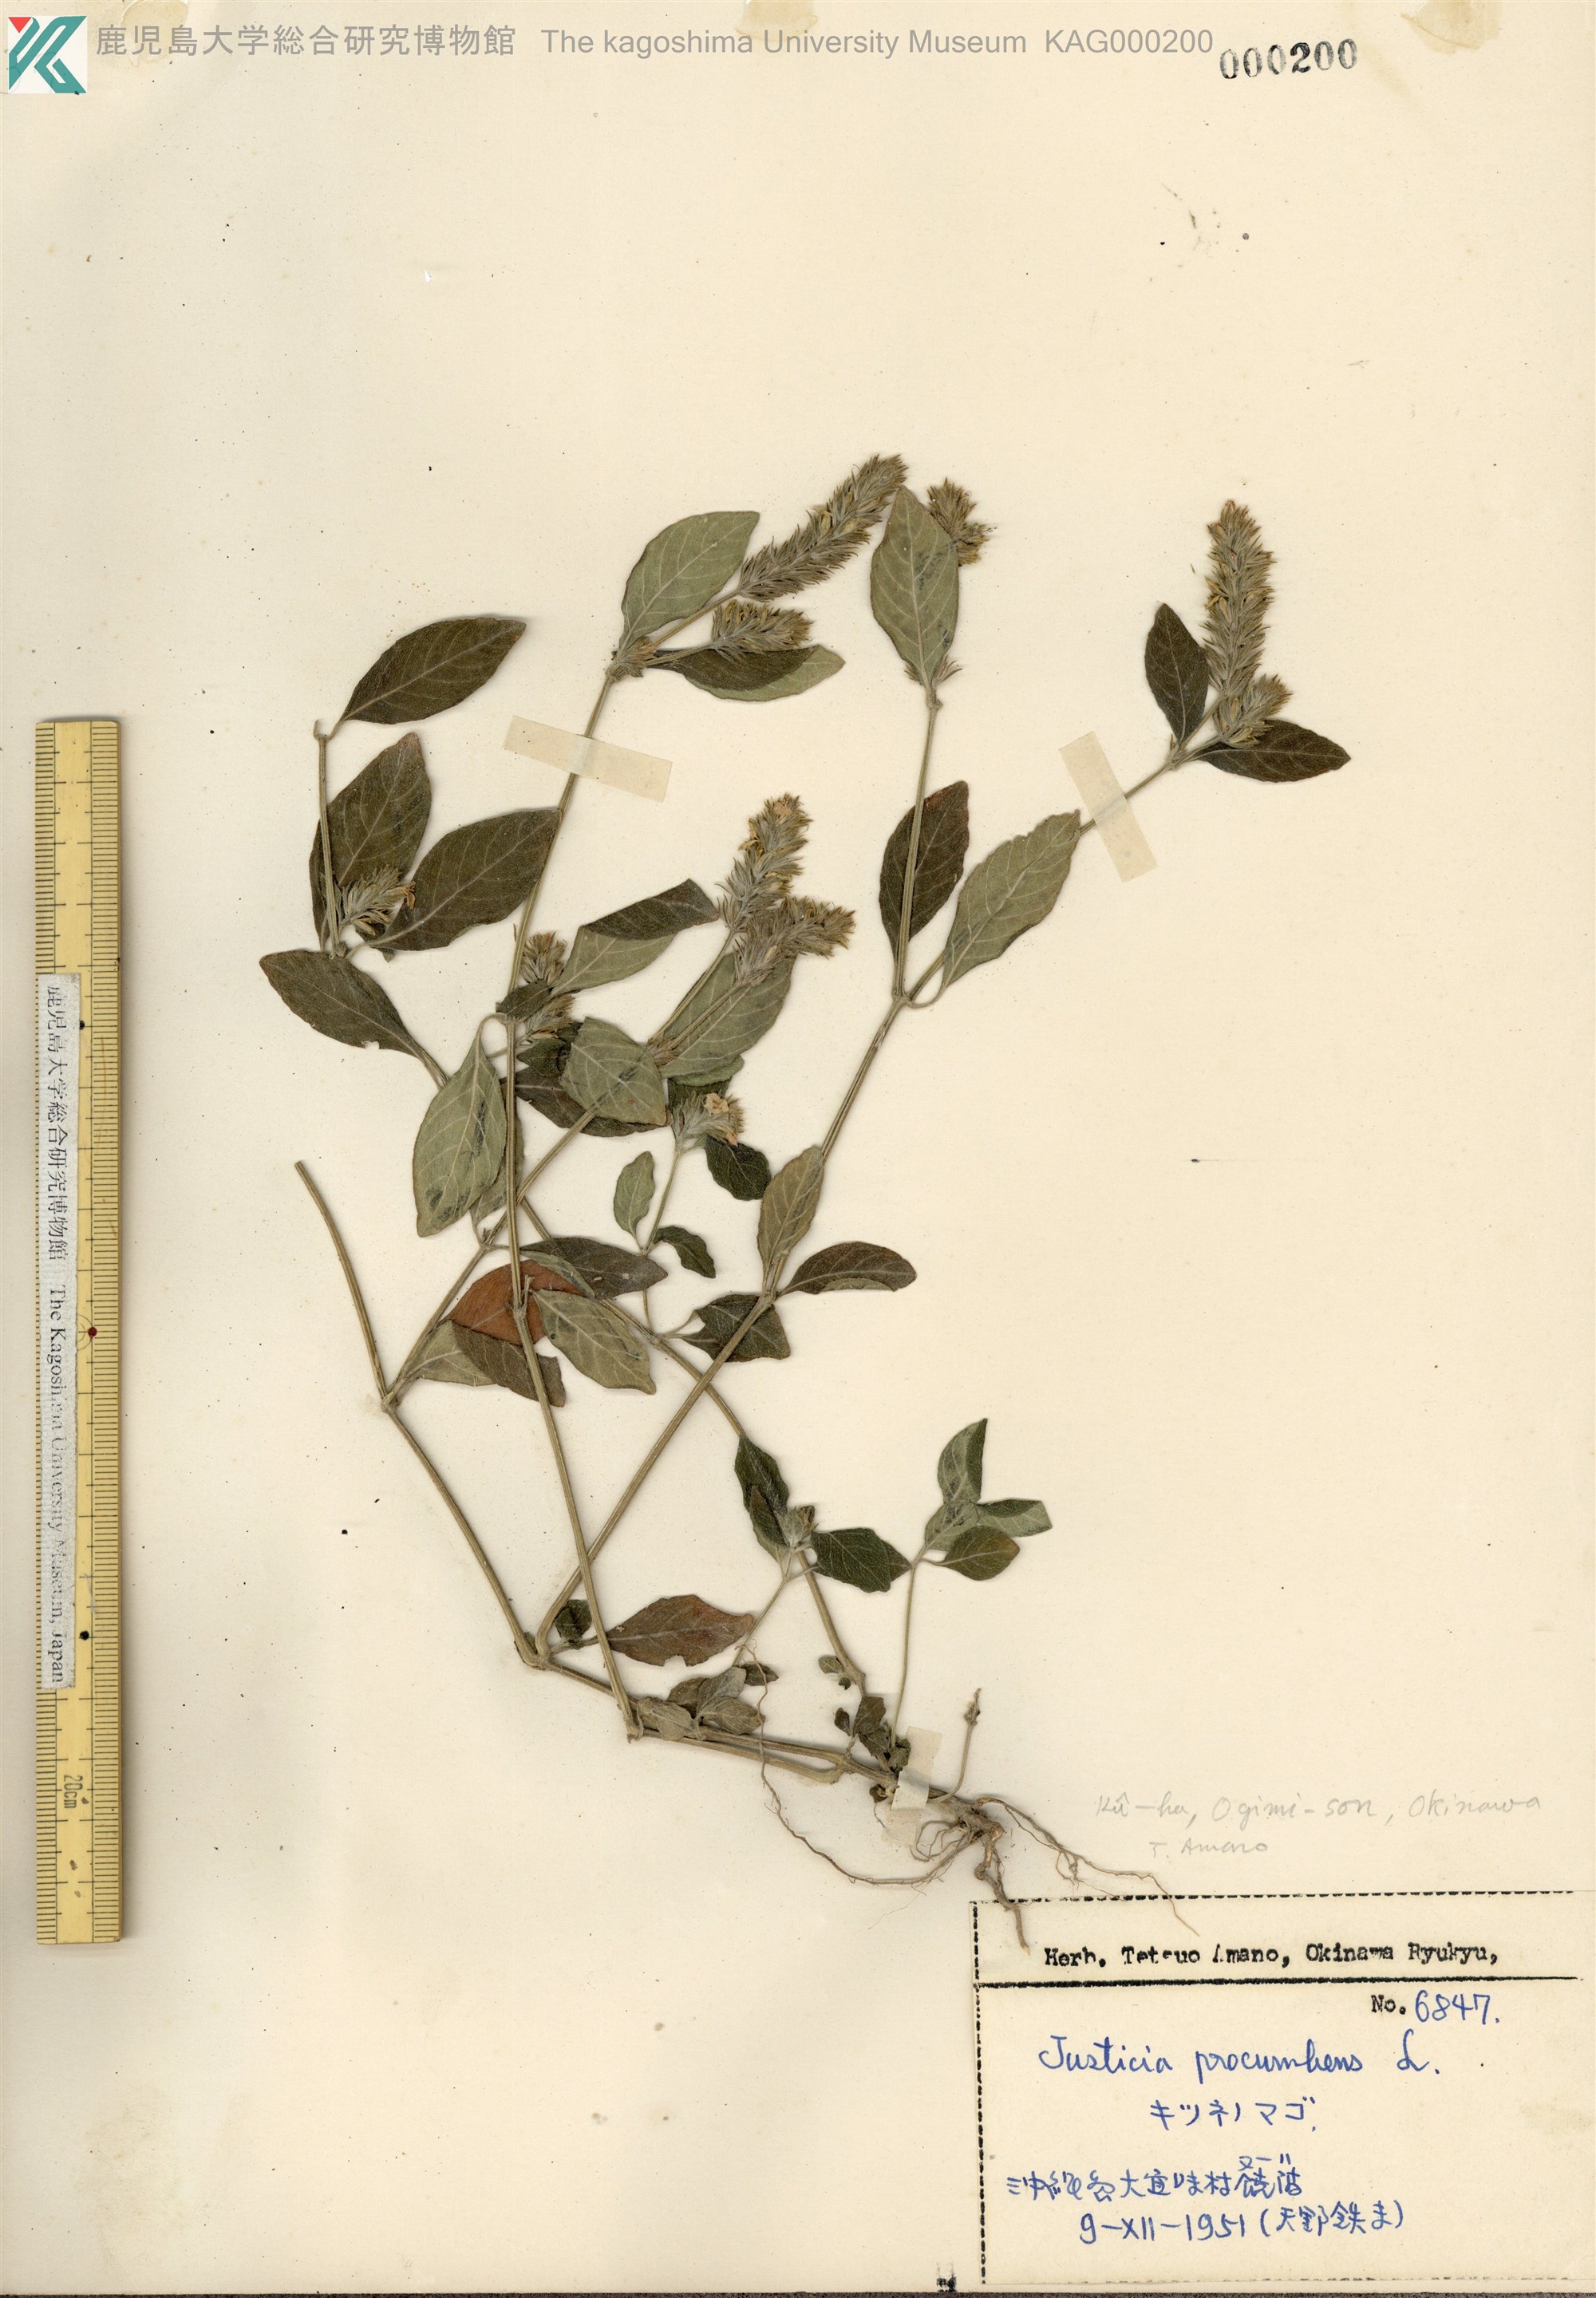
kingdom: Plantae
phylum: Tracheophyta
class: Magnoliopsida
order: Lamiales
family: Acanthaceae
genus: Rostellularia
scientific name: Rostellularia procumbens
